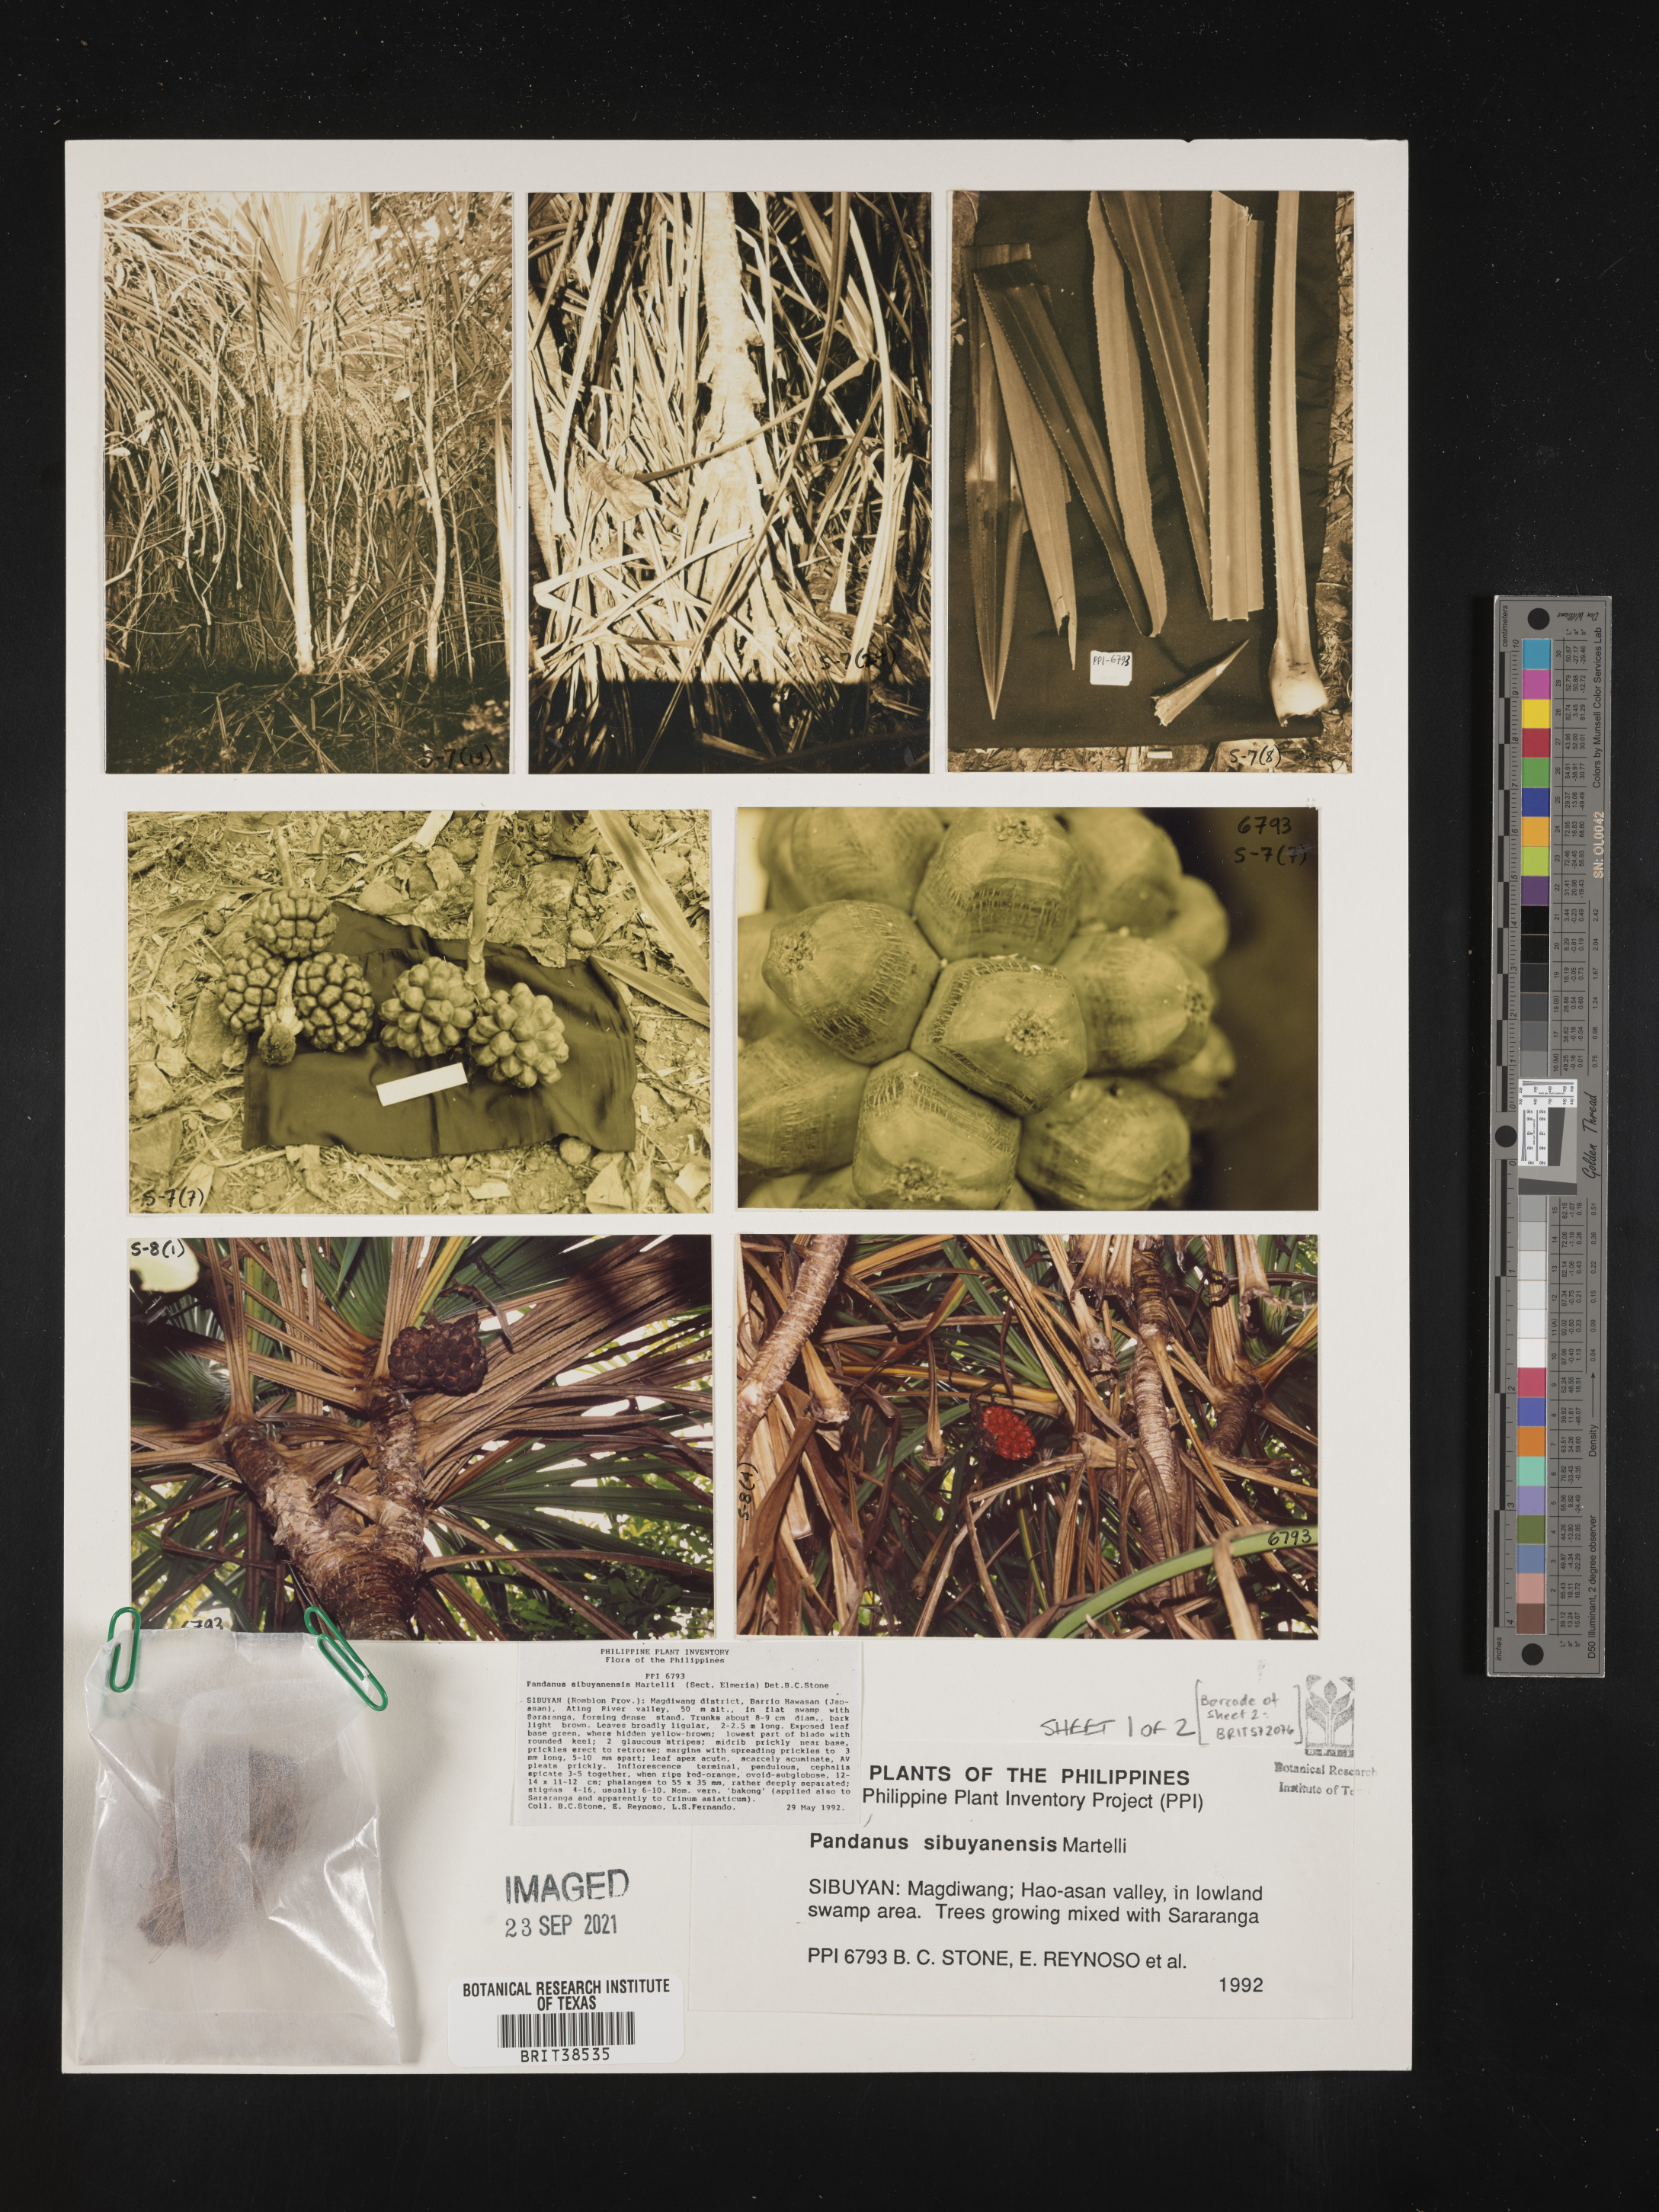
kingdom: Plantae
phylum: Tracheophyta
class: Liliopsida
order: Pandanales
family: Pandanaceae
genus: Pandanus
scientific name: Pandanus sibuyanensis
